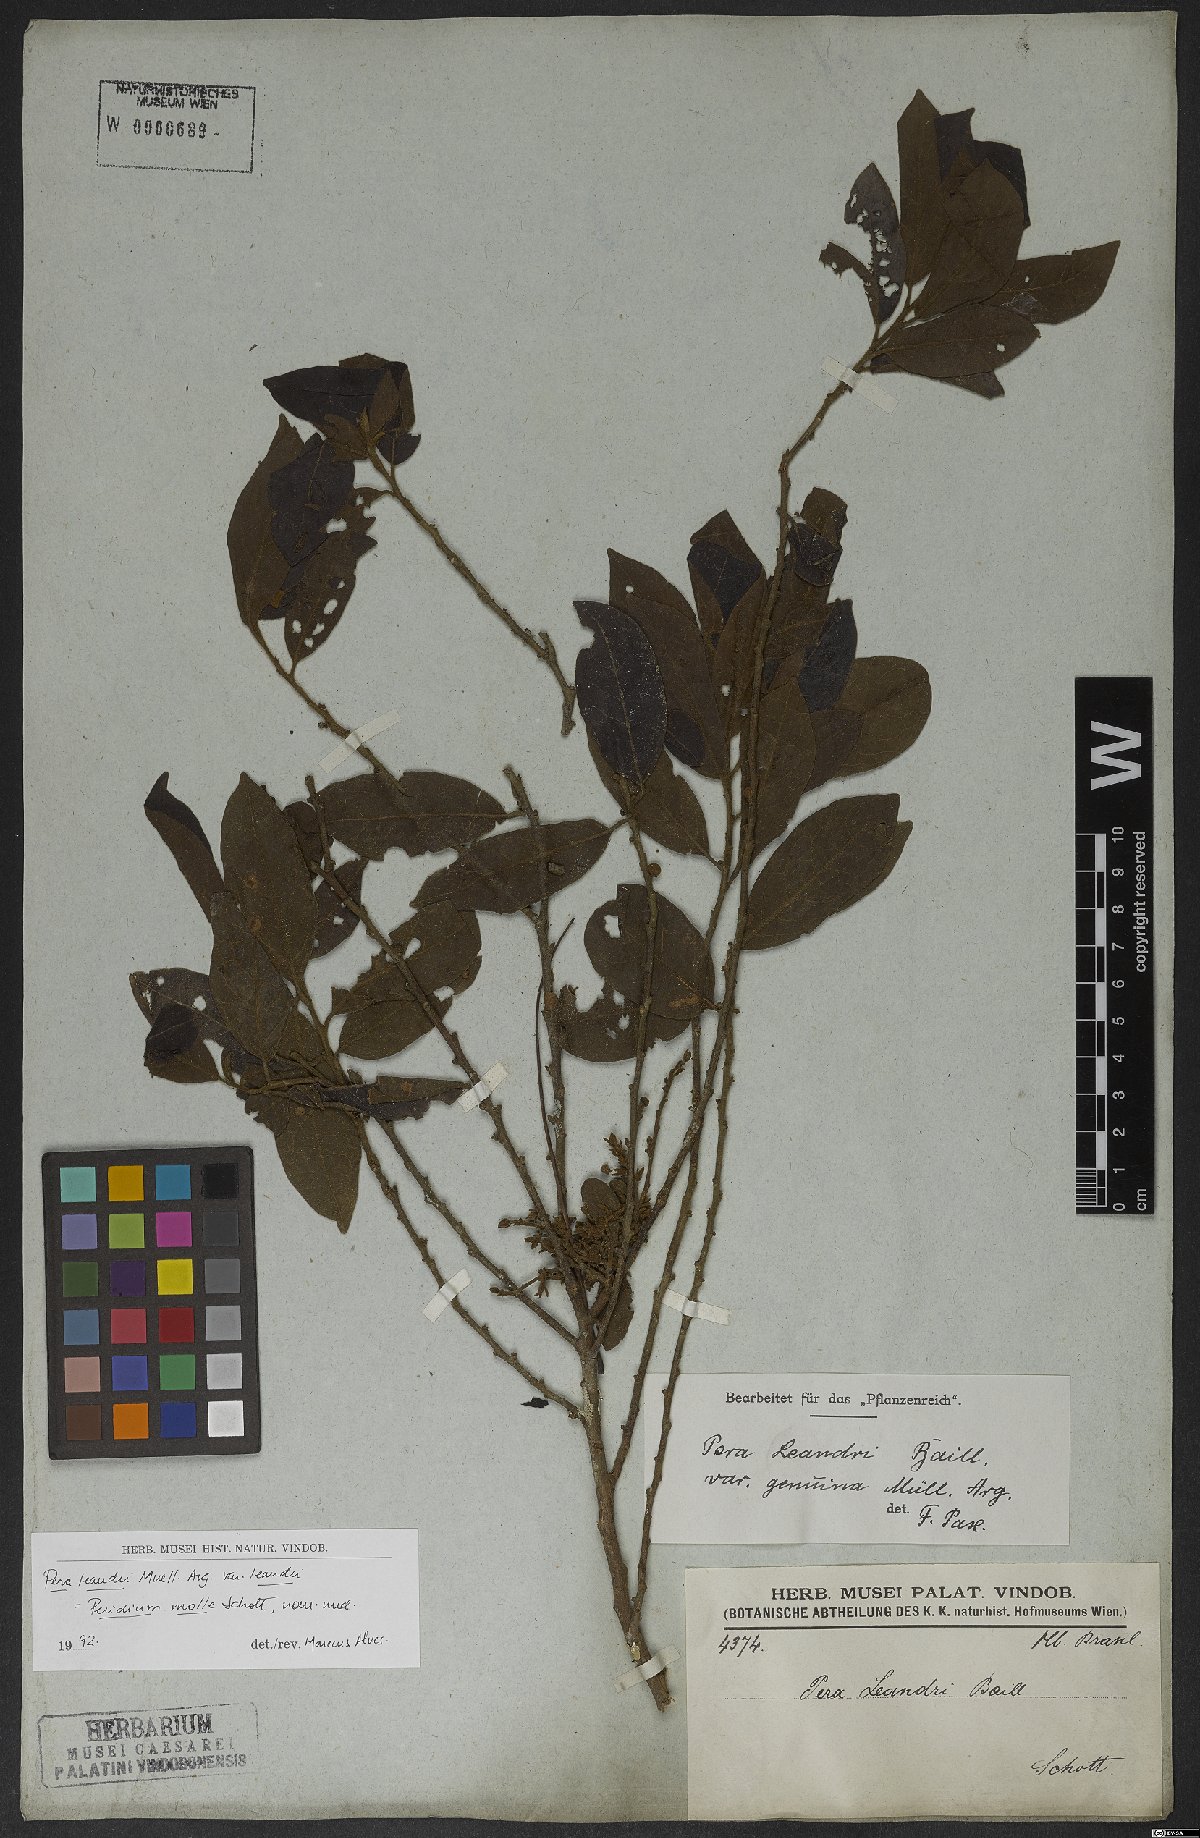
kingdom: Plantae
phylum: Tracheophyta
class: Magnoliopsida
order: Malpighiales
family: Peraceae
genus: Pera
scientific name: Pera heteranthera
